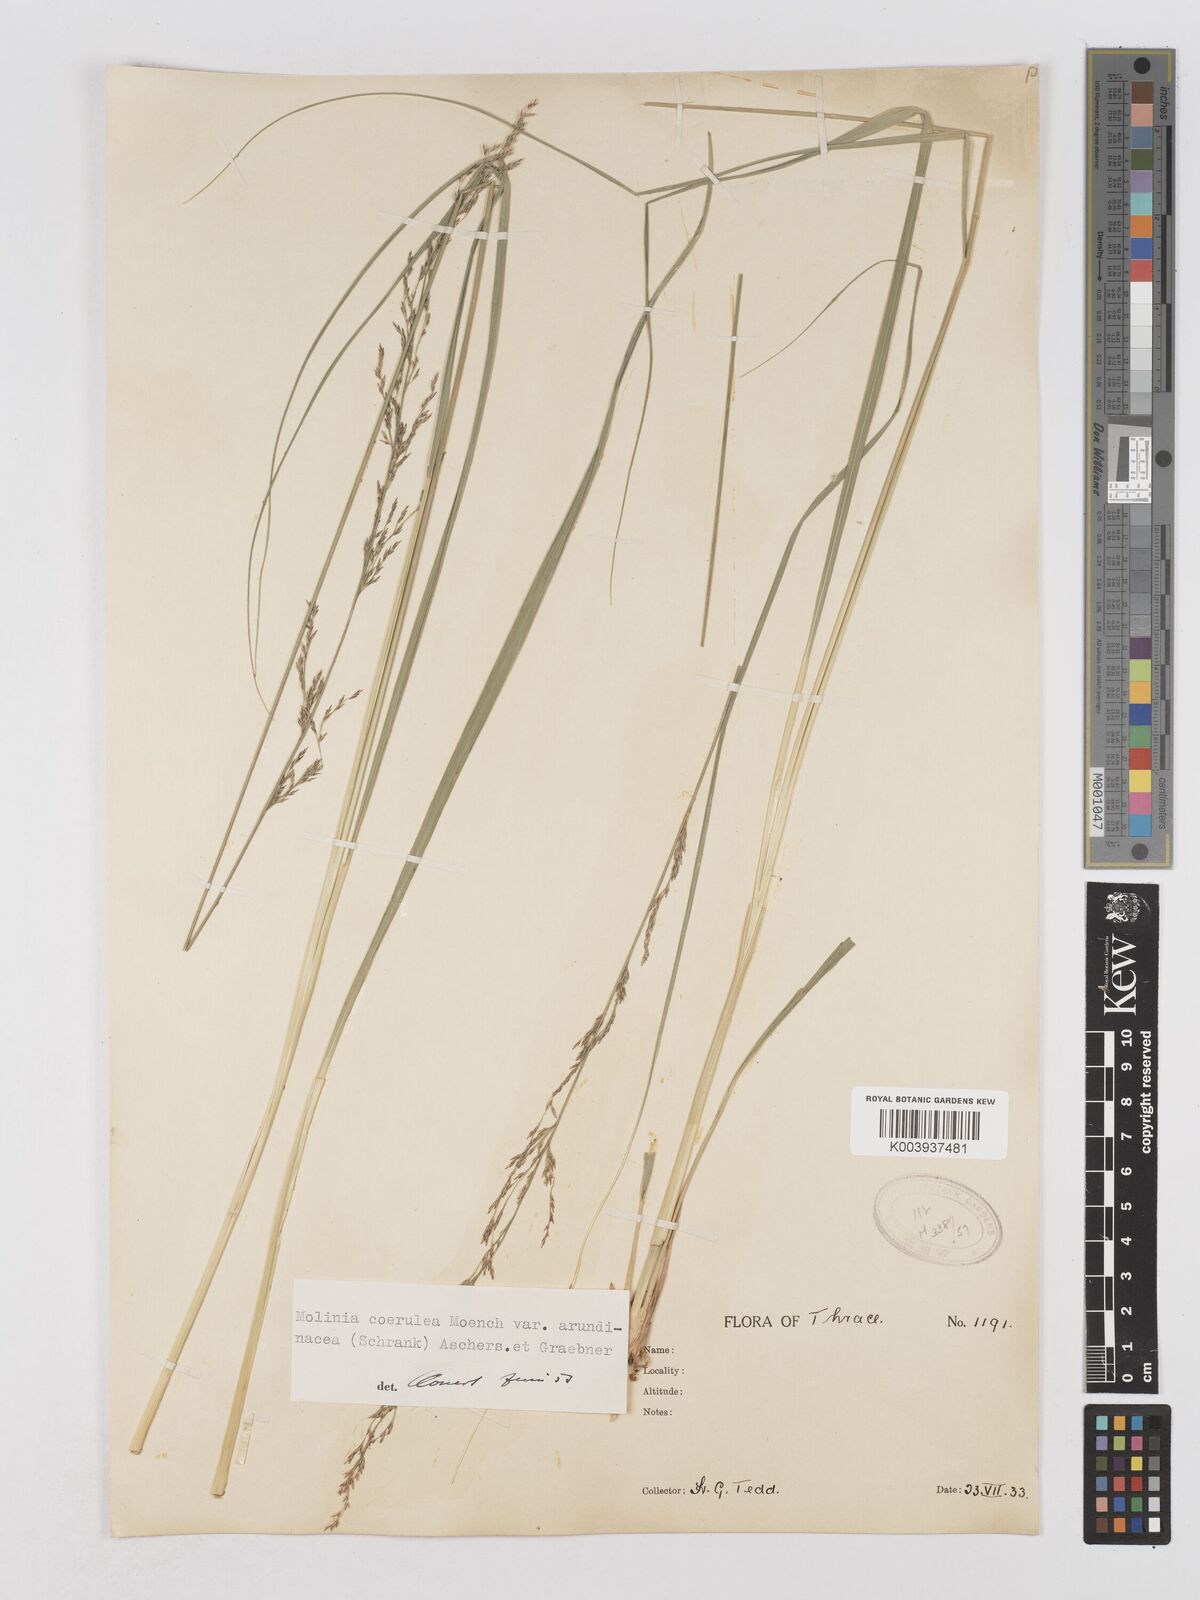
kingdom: Plantae
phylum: Tracheophyta
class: Liliopsida
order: Poales
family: Poaceae
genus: Molinia
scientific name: Molinia caerulea
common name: Purple moor-grass
